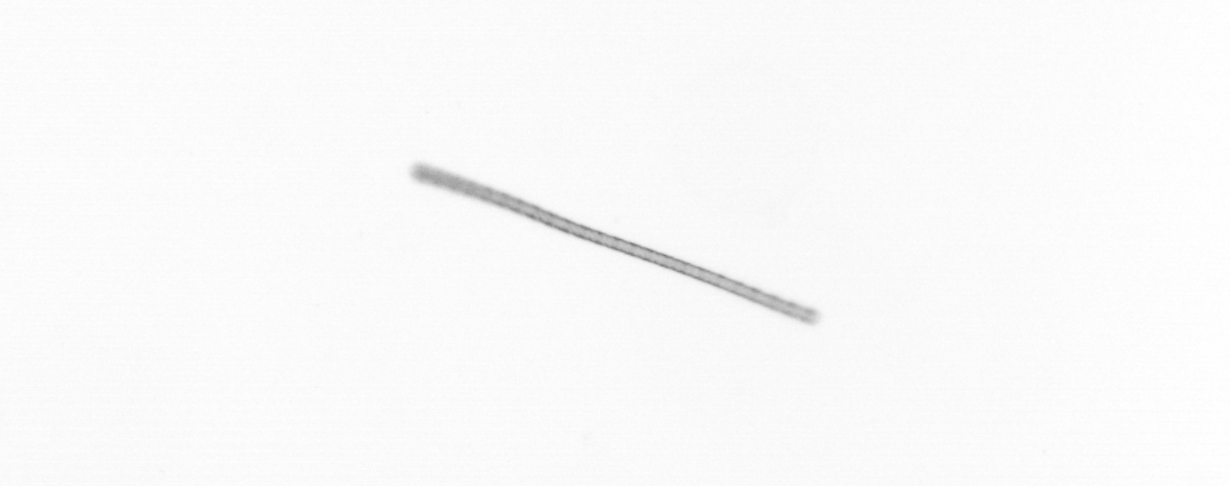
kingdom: Chromista
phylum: Ochrophyta
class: Bacillariophyceae
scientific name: Bacillariophyceae
